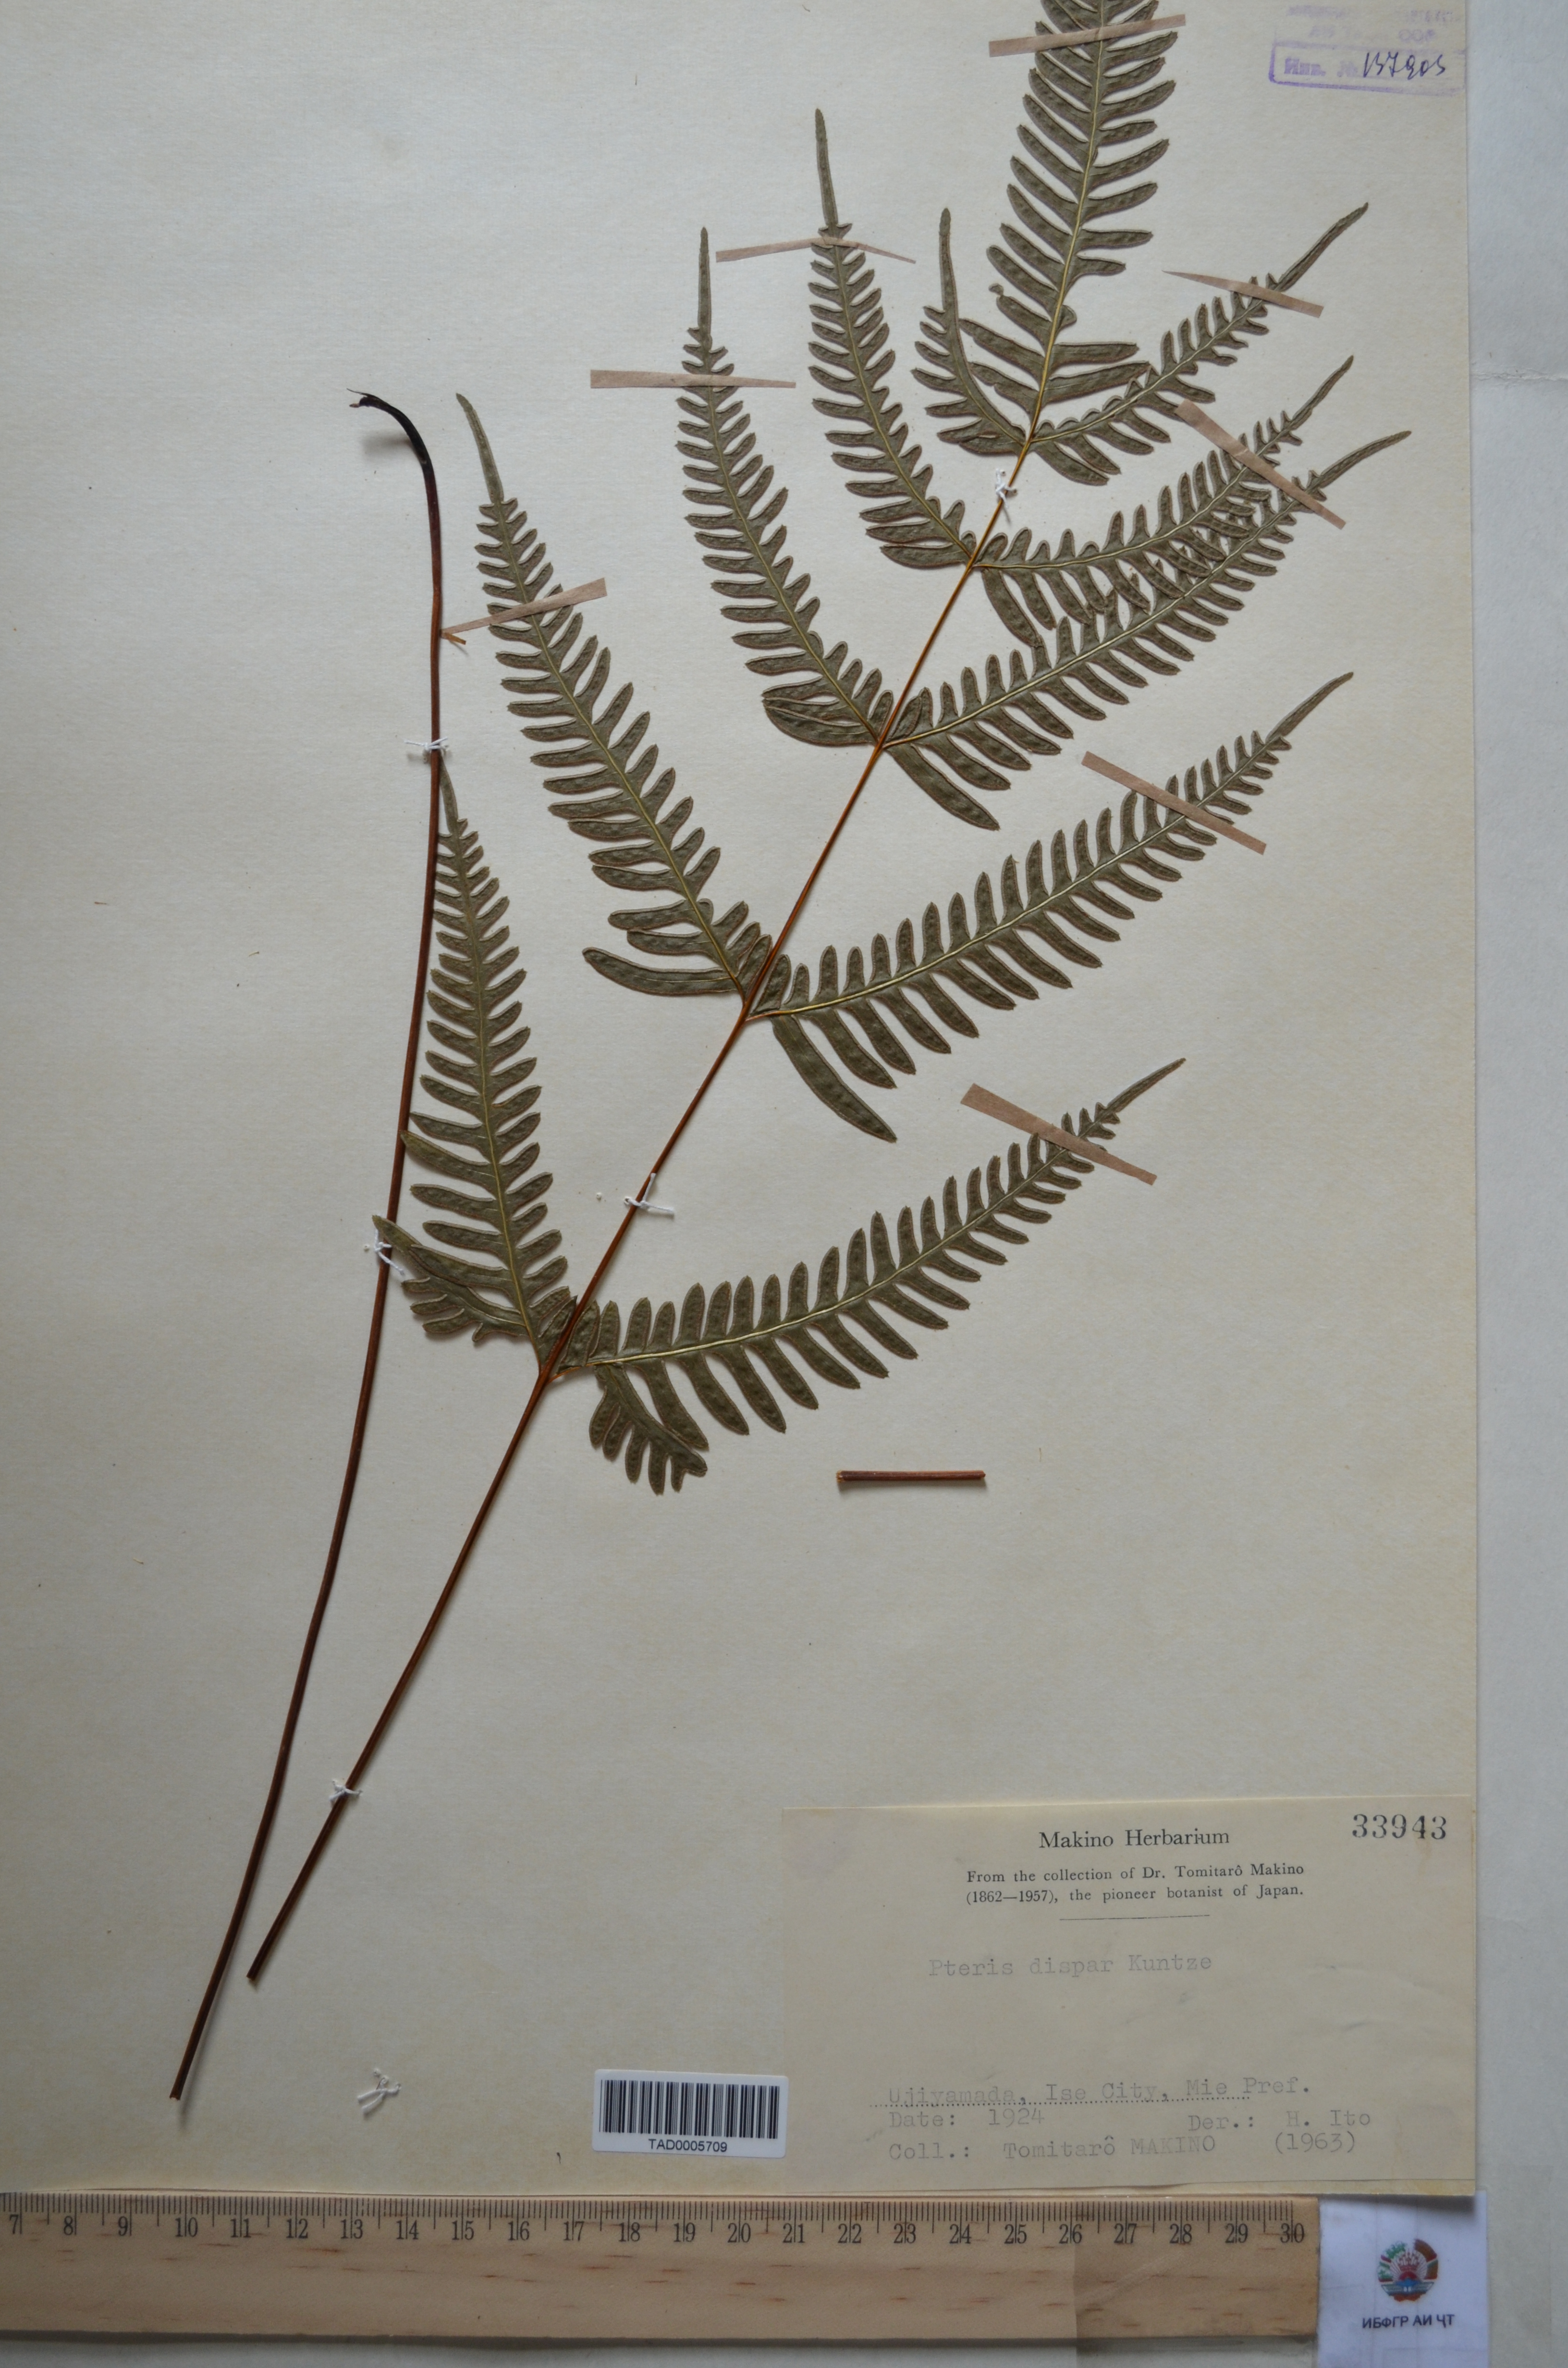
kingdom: Plantae
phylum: Tracheophyta
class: Polypodiopsida
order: Polypodiales
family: Pteridaceae
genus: Pteris
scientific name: Pteris dispar
